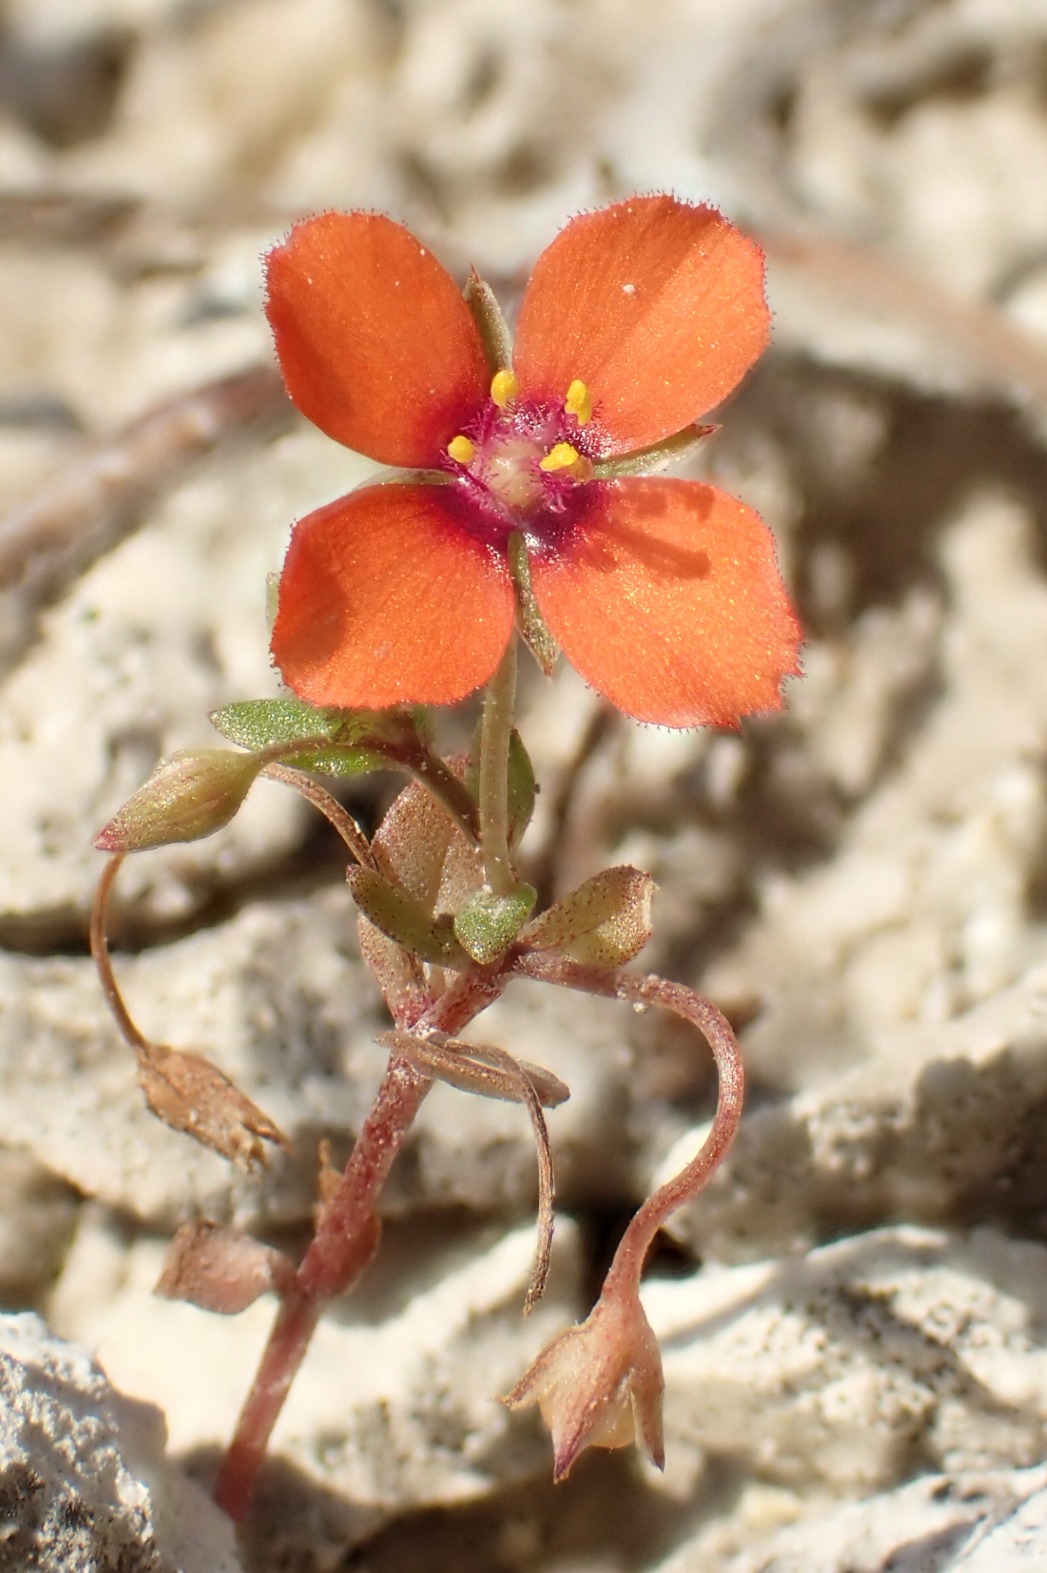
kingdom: Plantae
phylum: Tracheophyta
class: Magnoliopsida
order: Ericales
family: Primulaceae
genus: Lysimachia
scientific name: Lysimachia arvensis
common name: Rød arve
